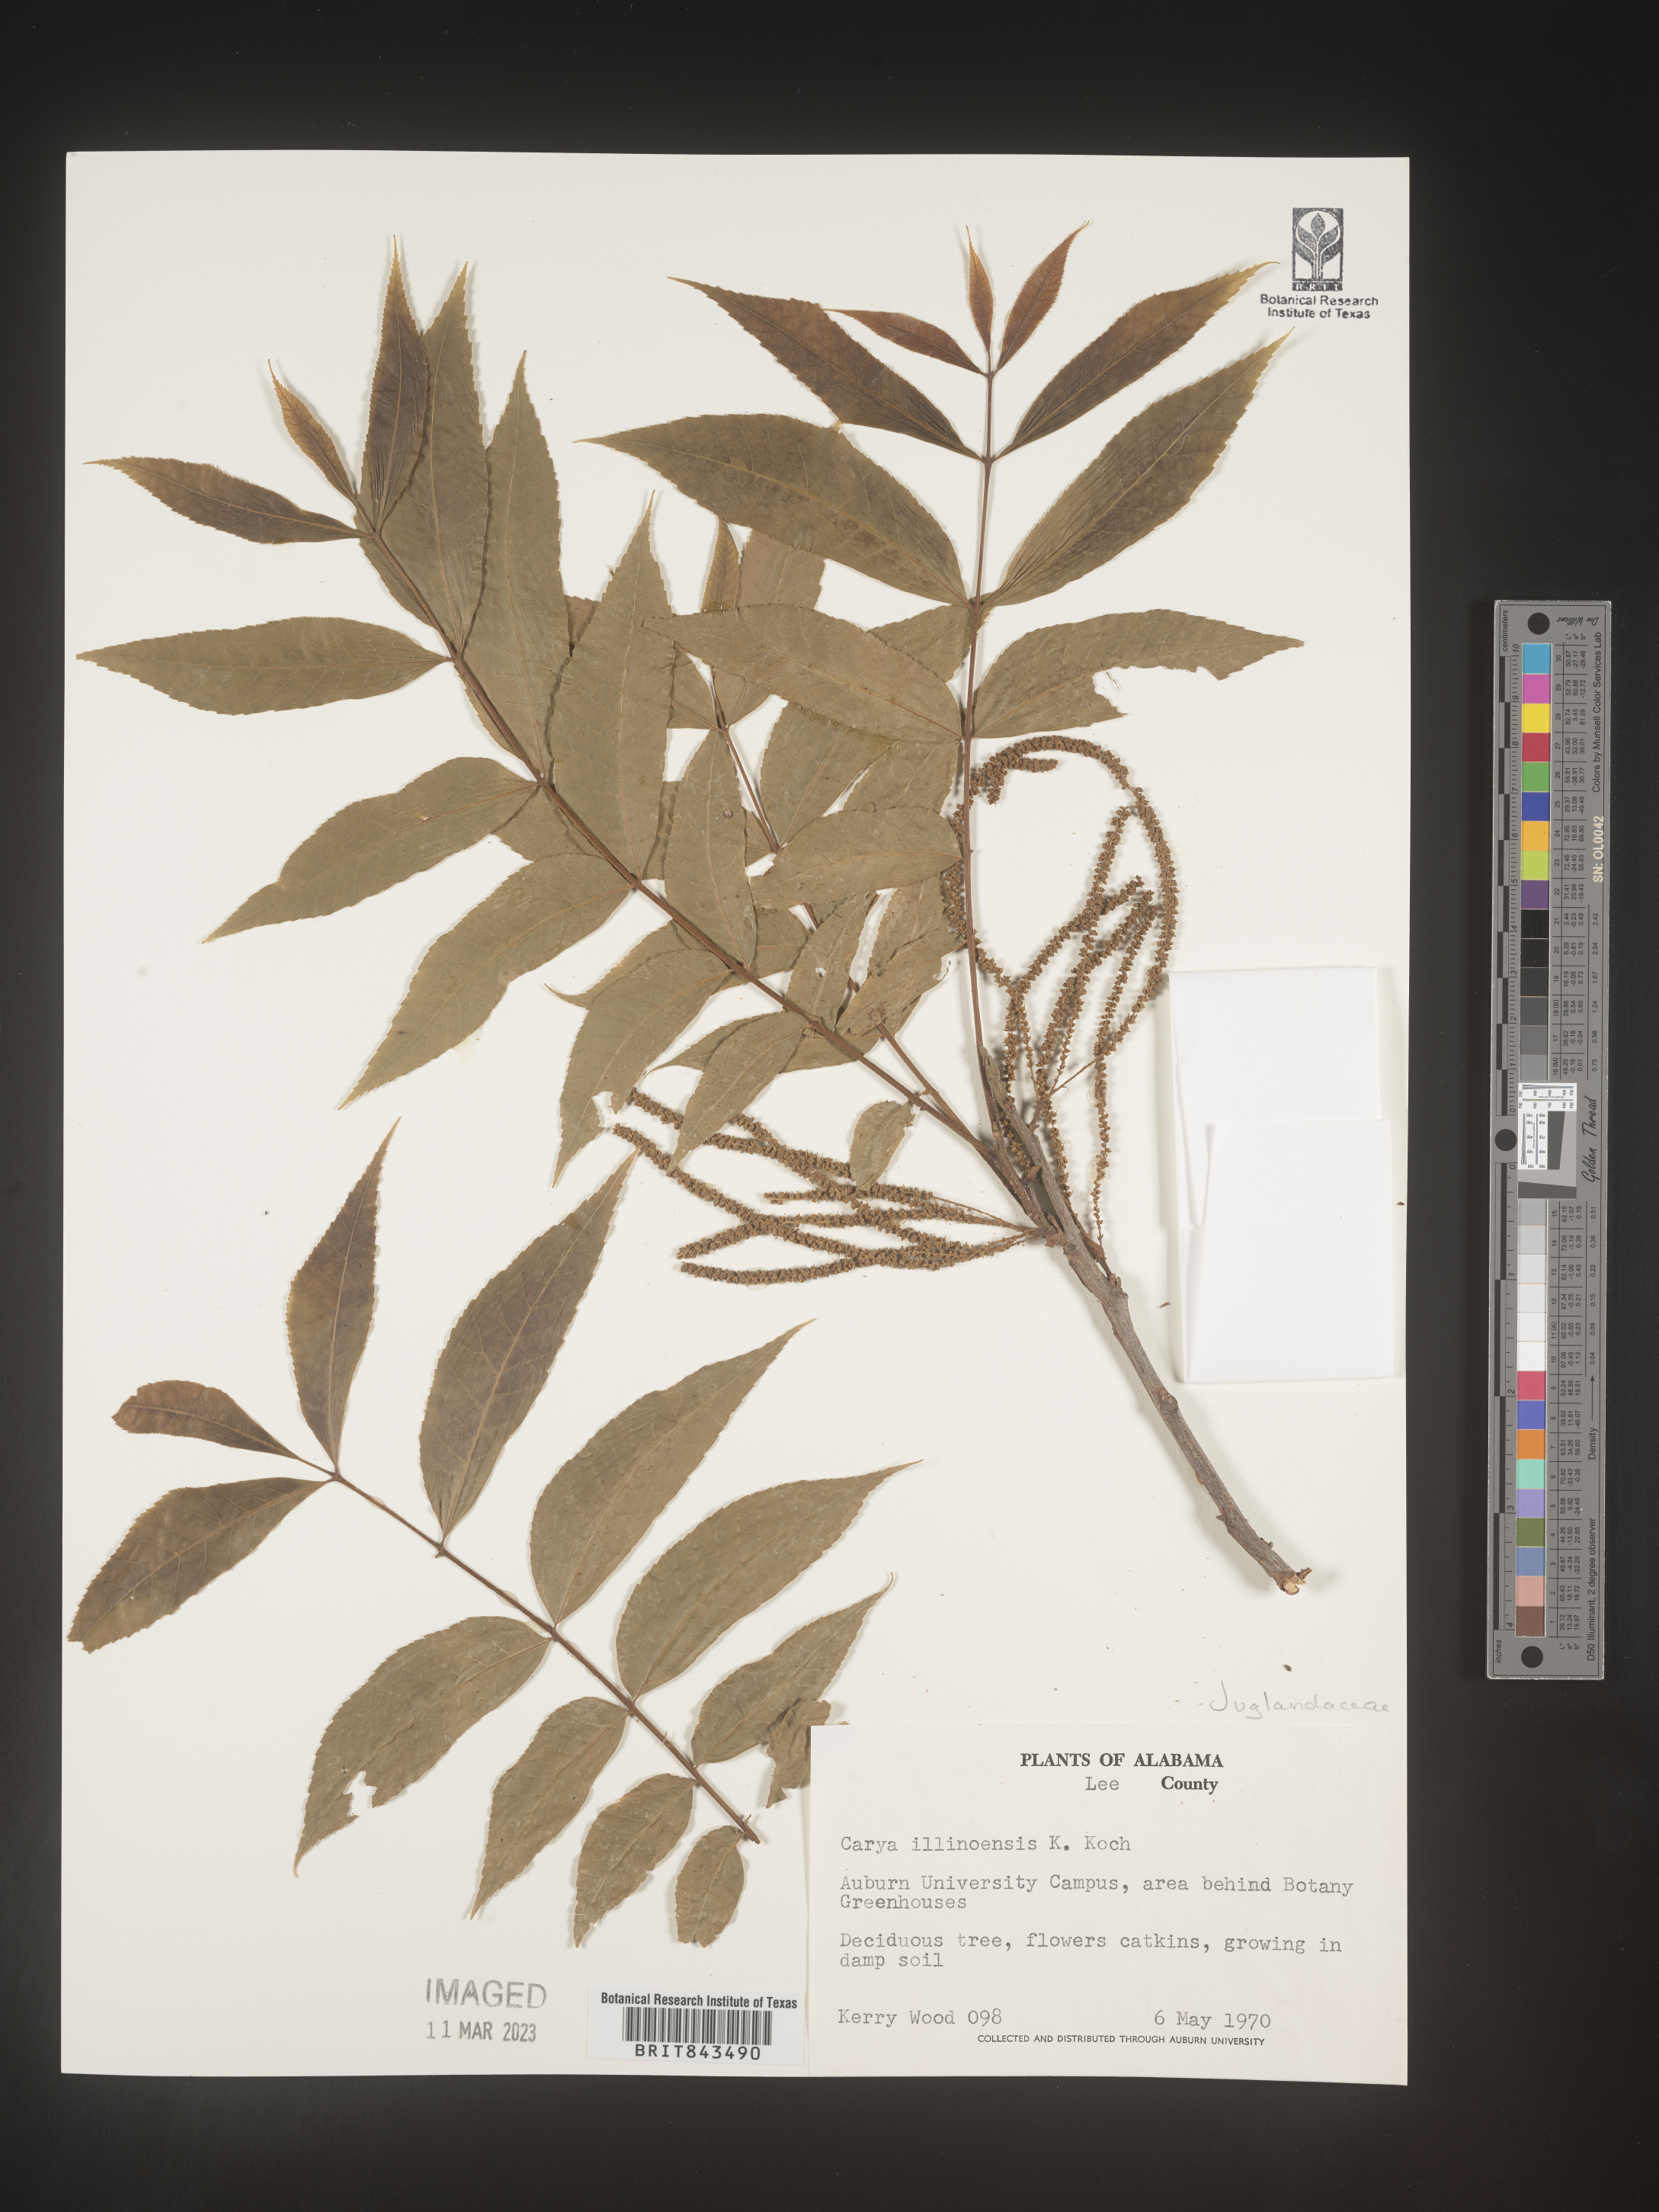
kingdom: Plantae
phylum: Tracheophyta
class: Magnoliopsida
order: Fagales
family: Juglandaceae
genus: Carya
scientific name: Carya illinoinensis
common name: Pecan
